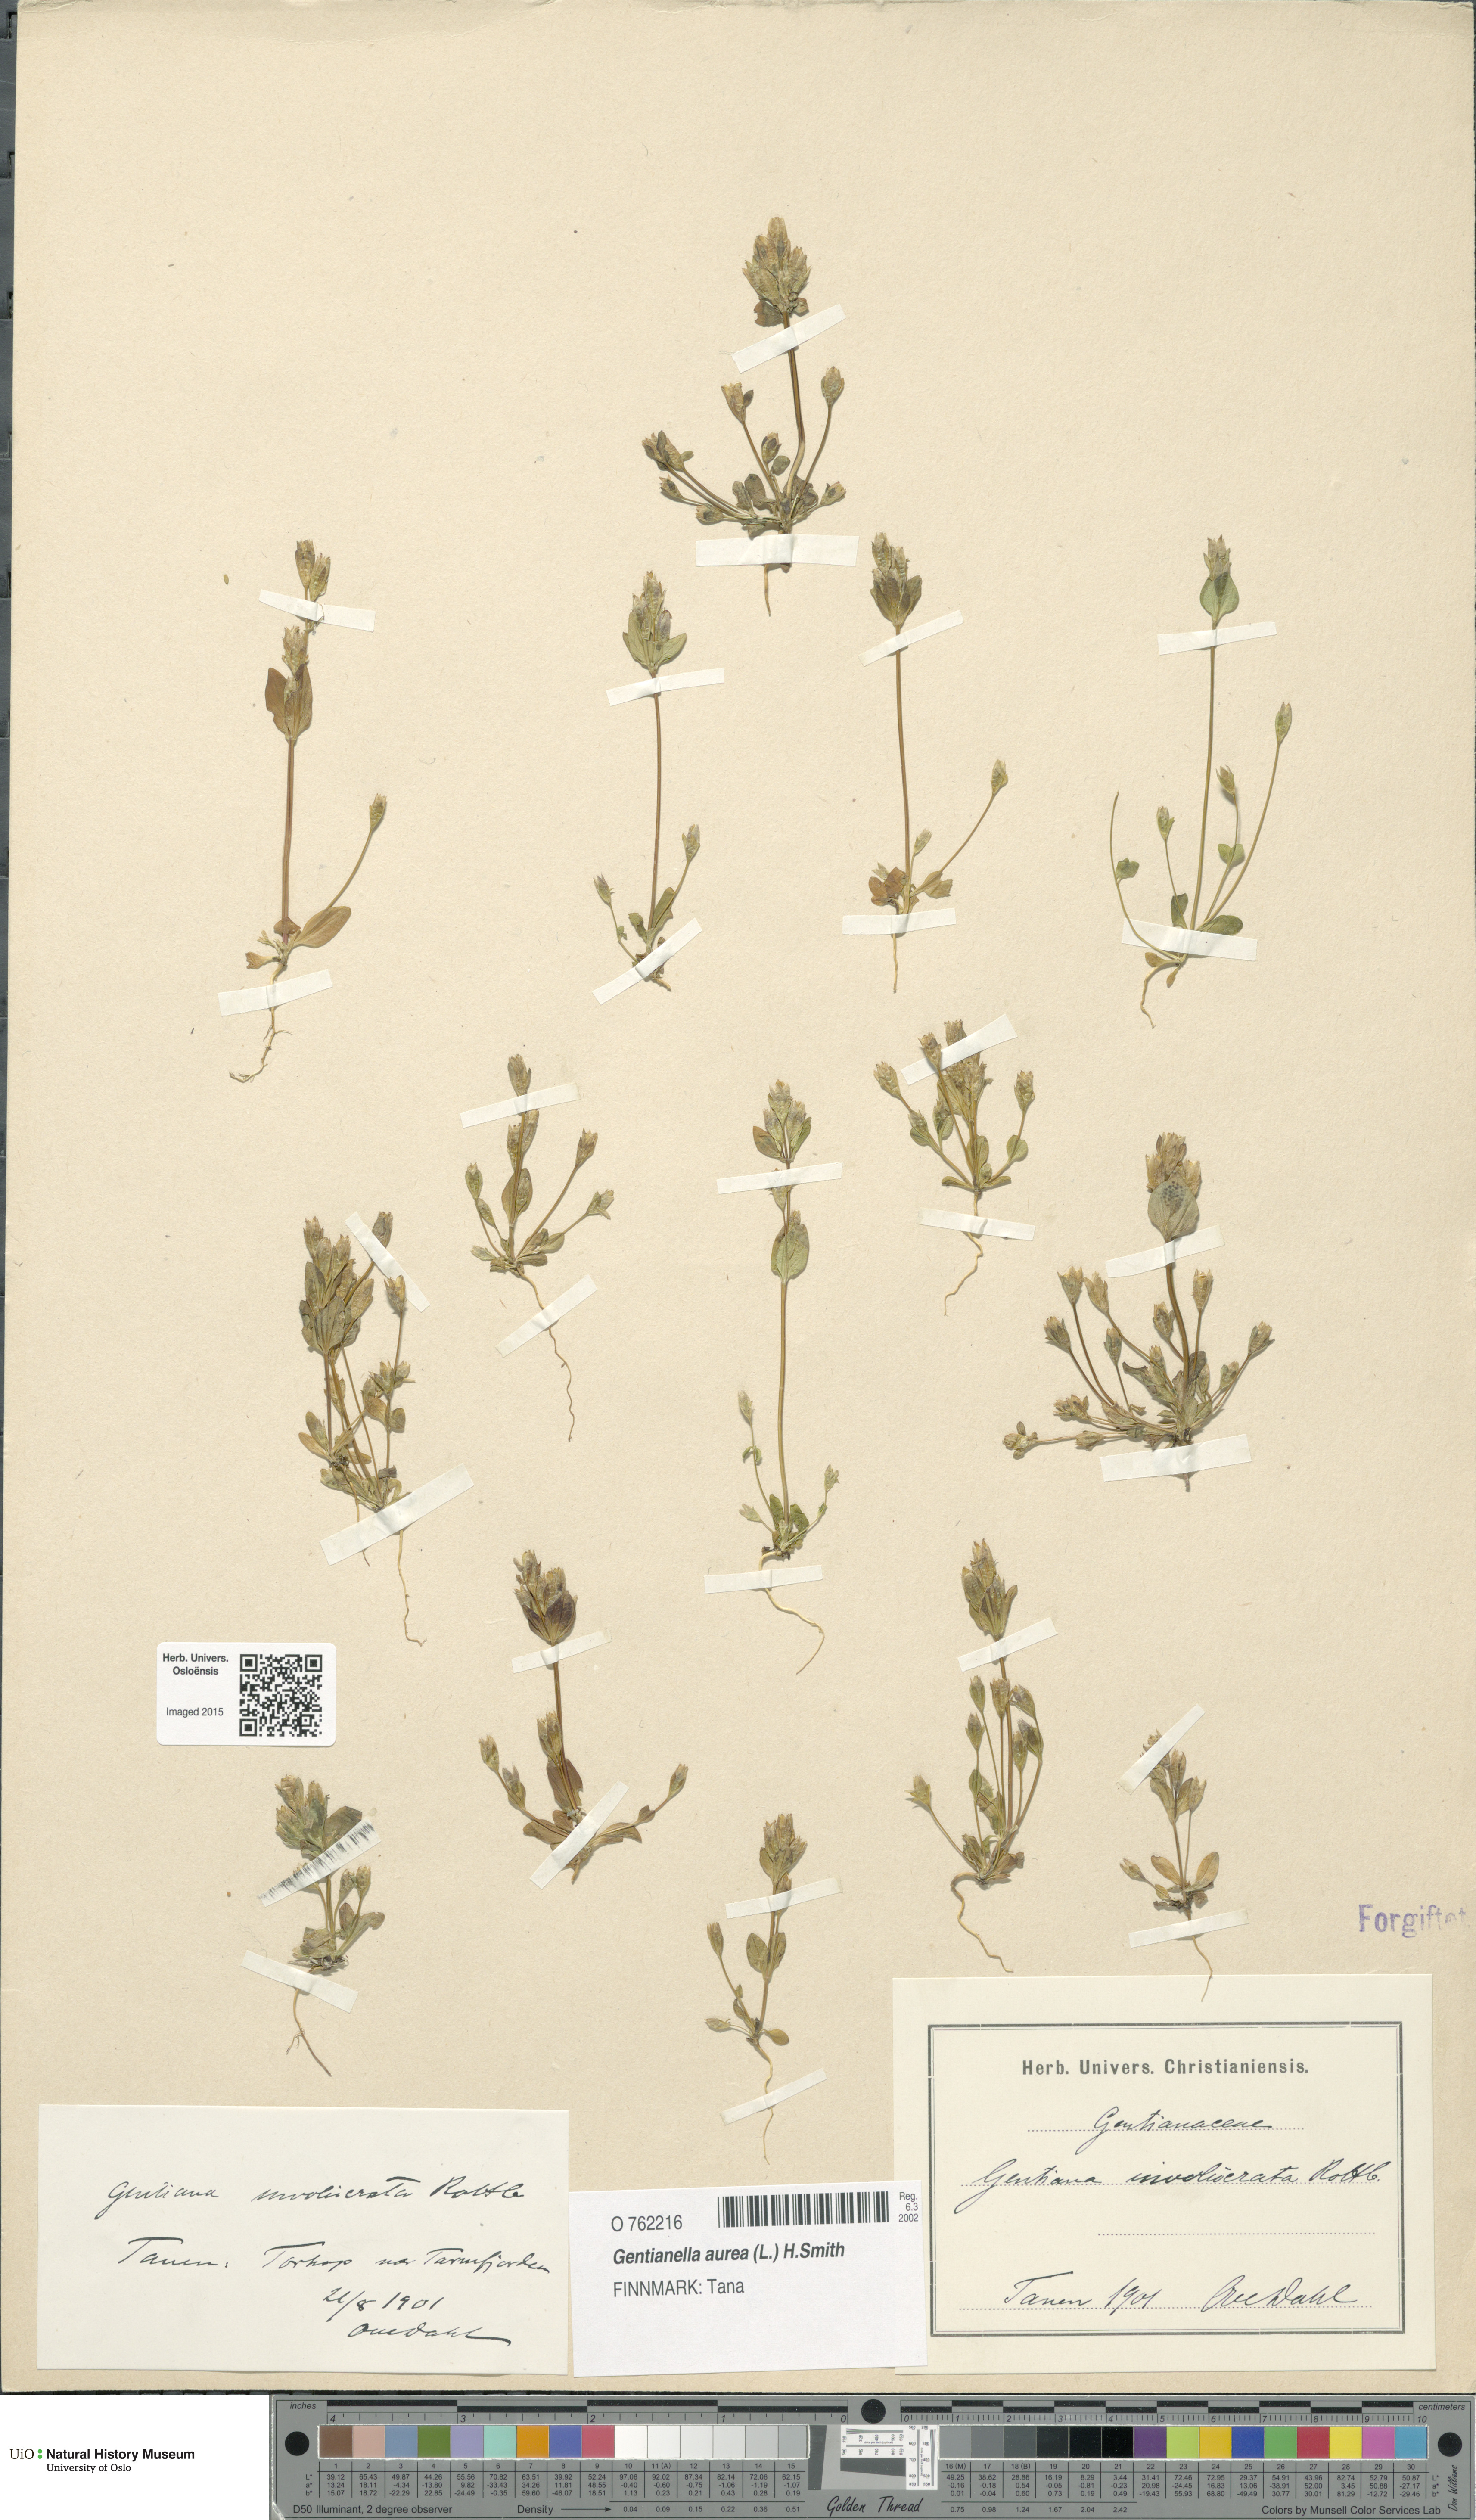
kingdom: Plantae
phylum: Tracheophyta
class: Magnoliopsida
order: Gentianales
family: Gentianaceae
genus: Gentianella
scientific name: Gentianella aurea
